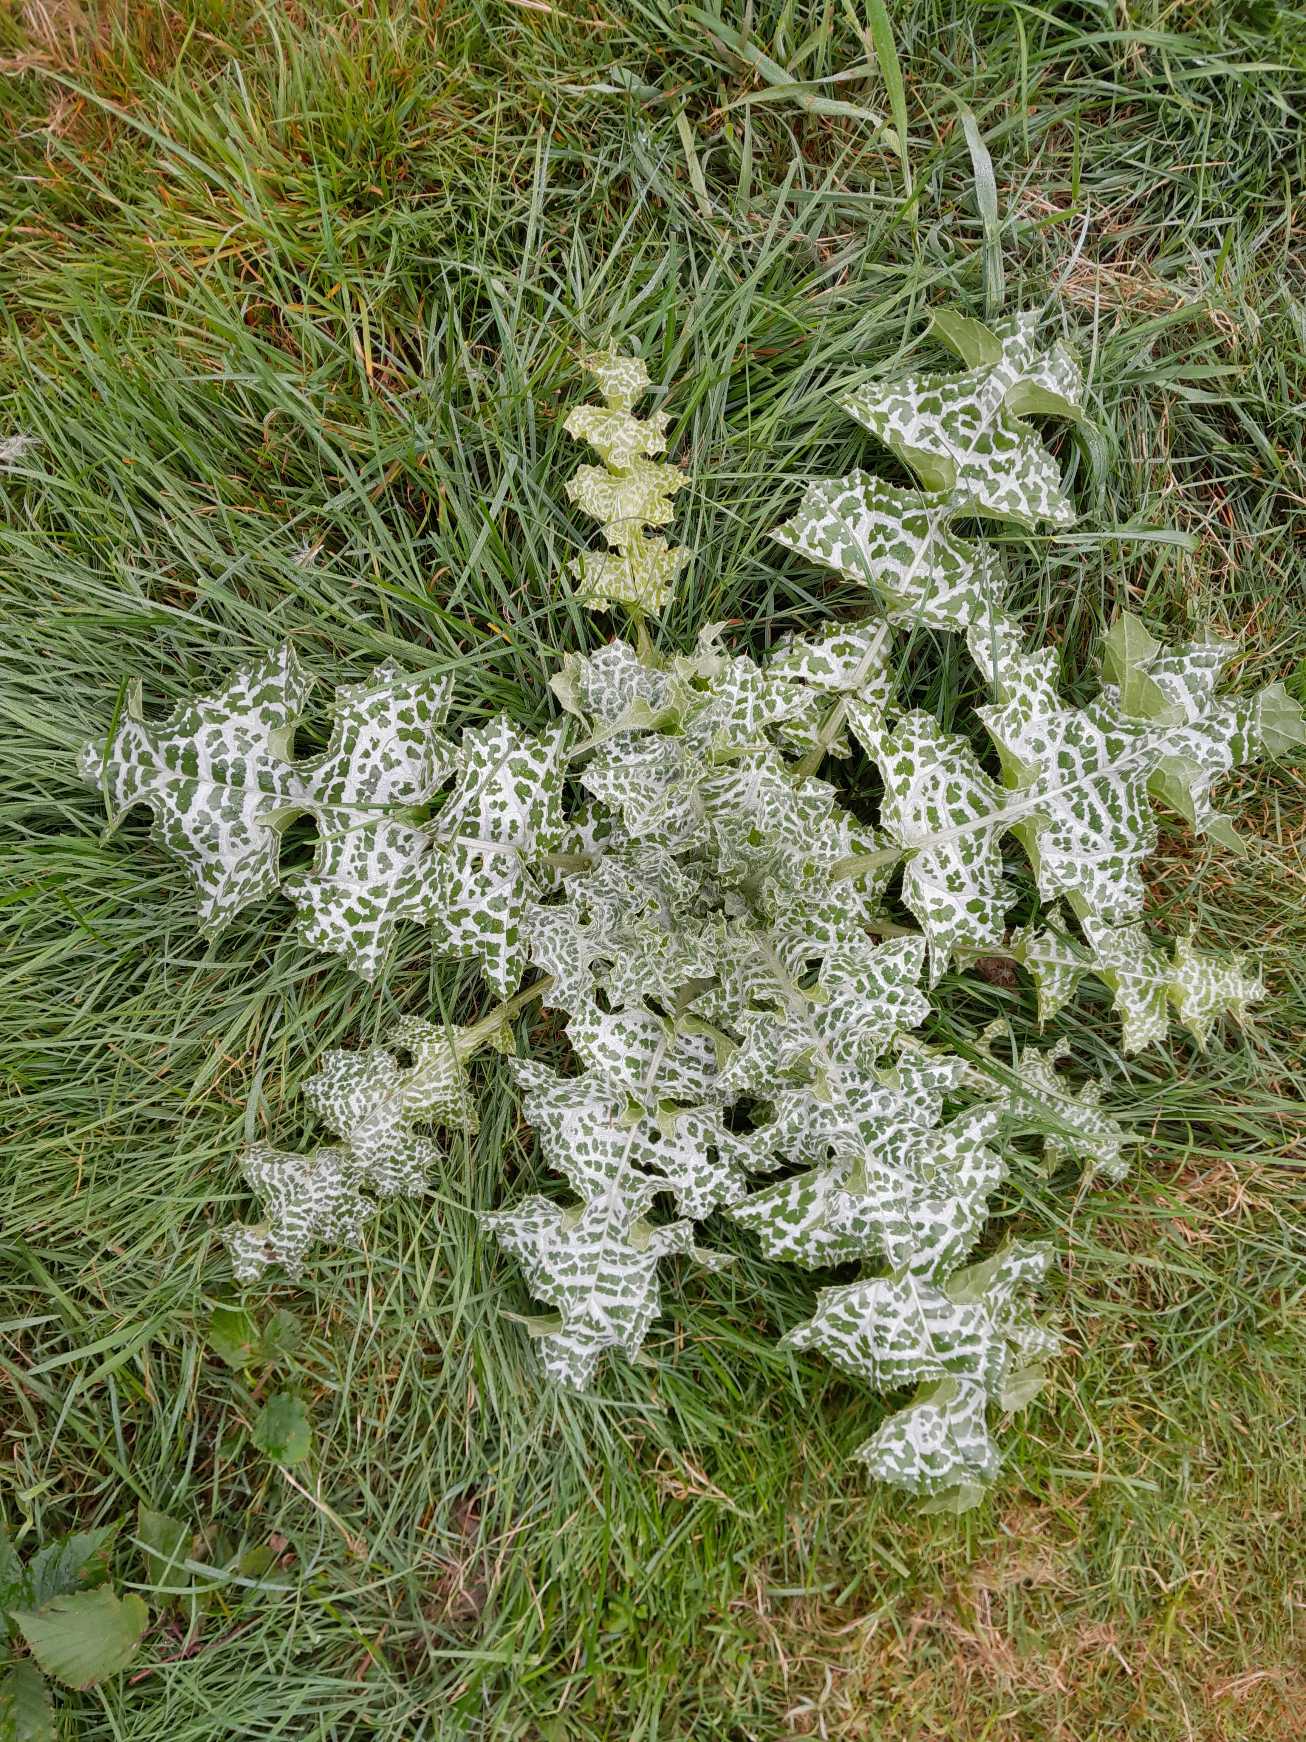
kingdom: Plantae
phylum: Tracheophyta
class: Magnoliopsida
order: Asterales
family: Asteraceae
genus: Silybum
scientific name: Silybum marianum
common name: Marietidsel
